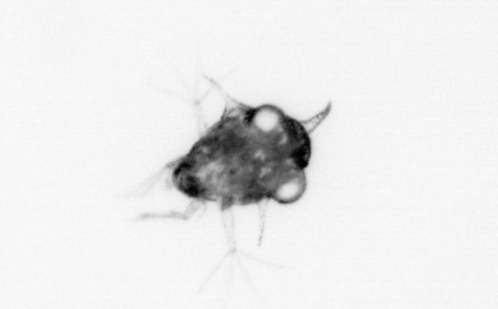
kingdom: Animalia
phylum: Arthropoda
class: Malacostraca
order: Decapoda
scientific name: Decapoda
